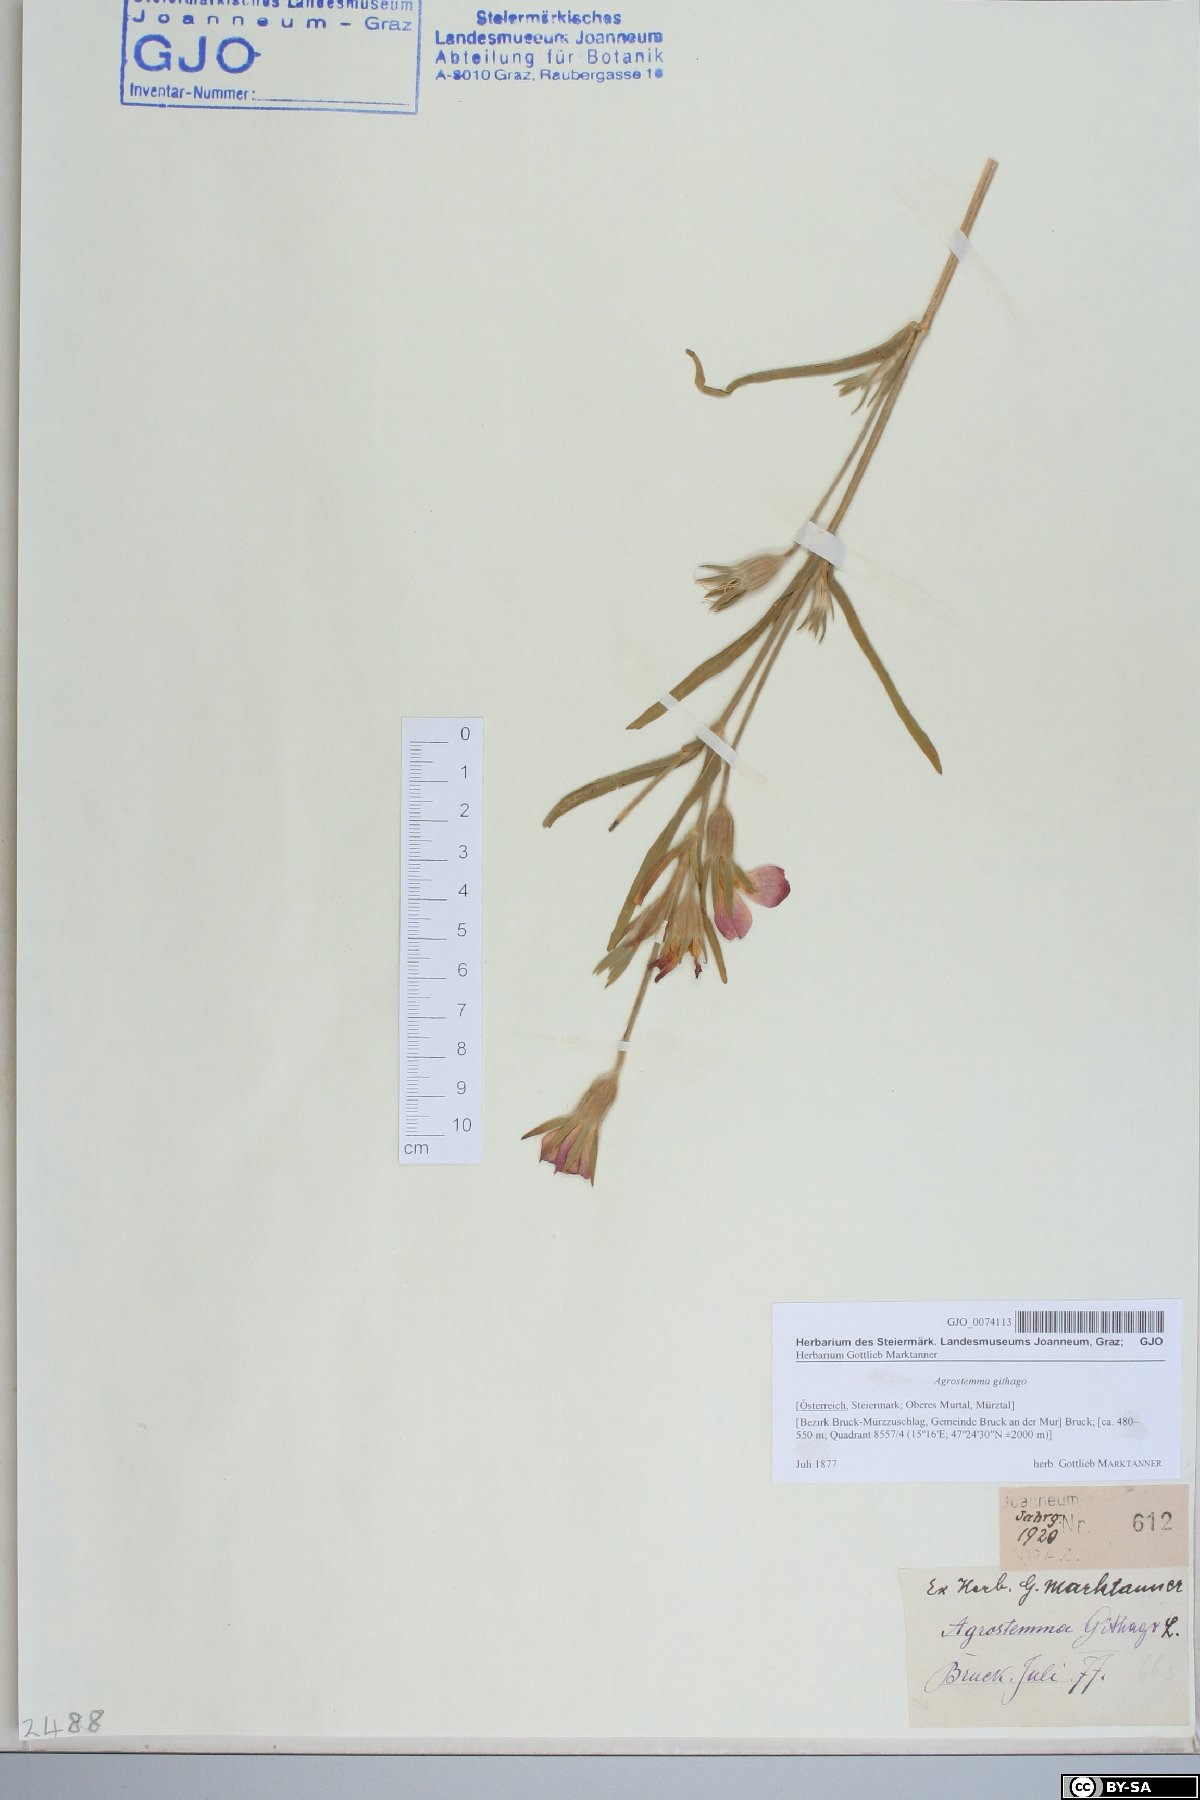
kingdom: Plantae
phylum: Tracheophyta
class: Magnoliopsida
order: Caryophyllales
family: Caryophyllaceae
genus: Agrostemma
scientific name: Agrostemma githago
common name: Common corncockle
